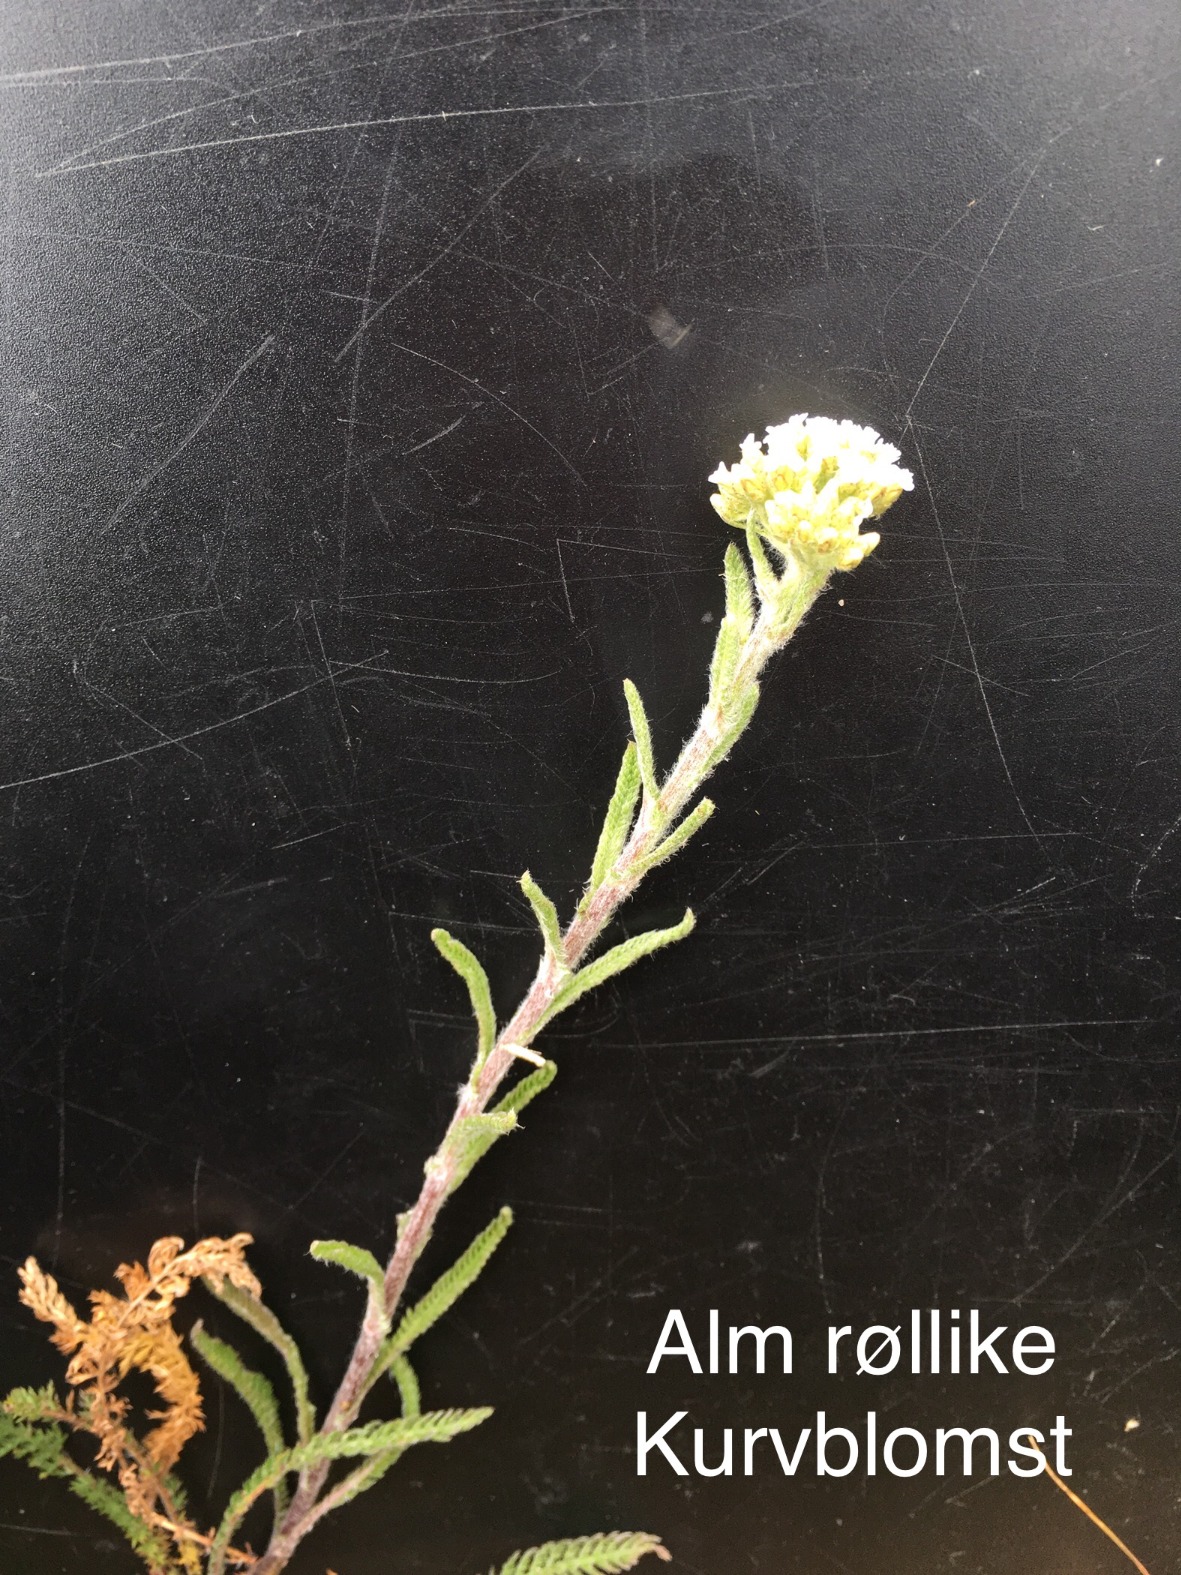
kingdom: Plantae
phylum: Tracheophyta
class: Magnoliopsida
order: Asterales
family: Asteraceae
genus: Achillea
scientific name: Achillea millefolium
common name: Almindelig røllike
